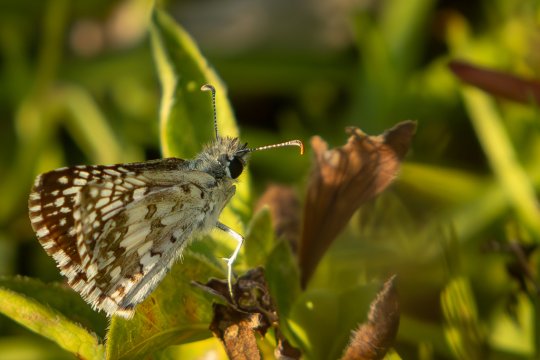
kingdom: Animalia
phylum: Arthropoda
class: Insecta
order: Lepidoptera
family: Hesperiidae
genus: Pyrgus
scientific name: Pyrgus communis
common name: Common Checkered-Skipper
